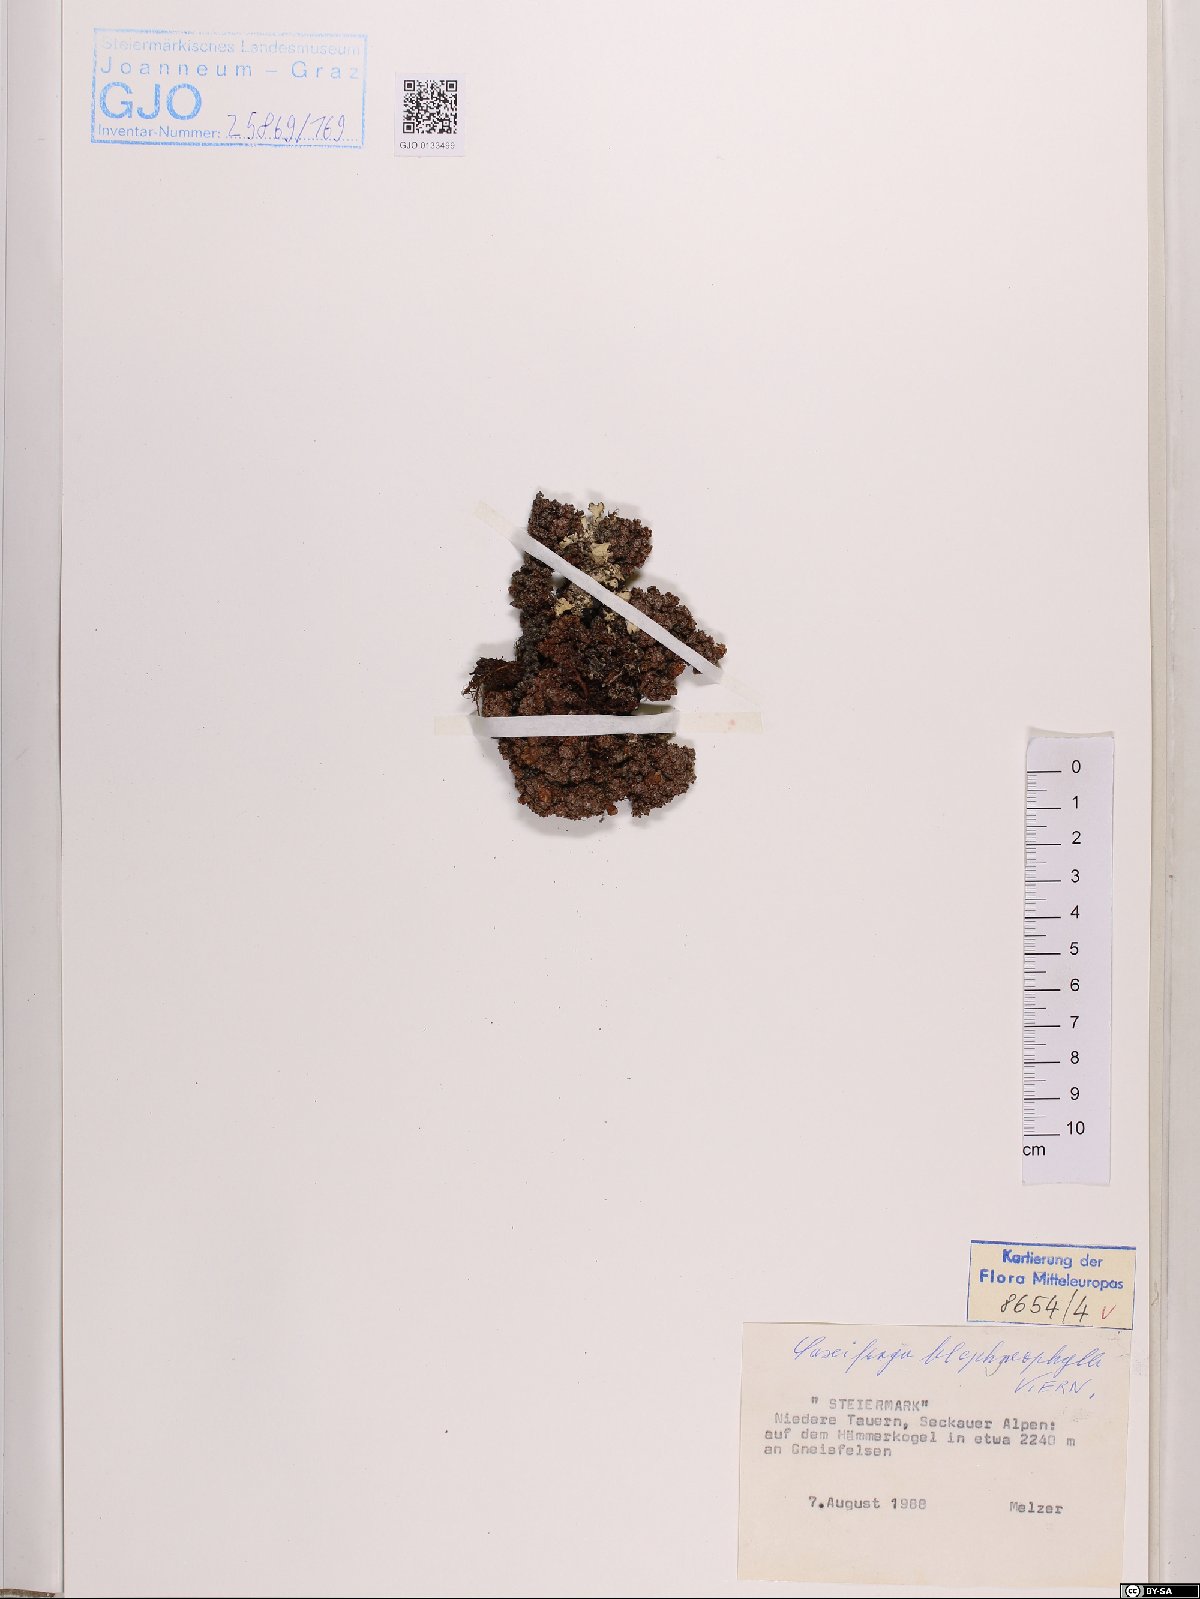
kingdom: Plantae
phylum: Tracheophyta
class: Magnoliopsida
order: Saxifragales
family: Saxifragaceae
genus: Saxifraga
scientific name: Saxifraga oppositifolia
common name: Purple saxifrage
